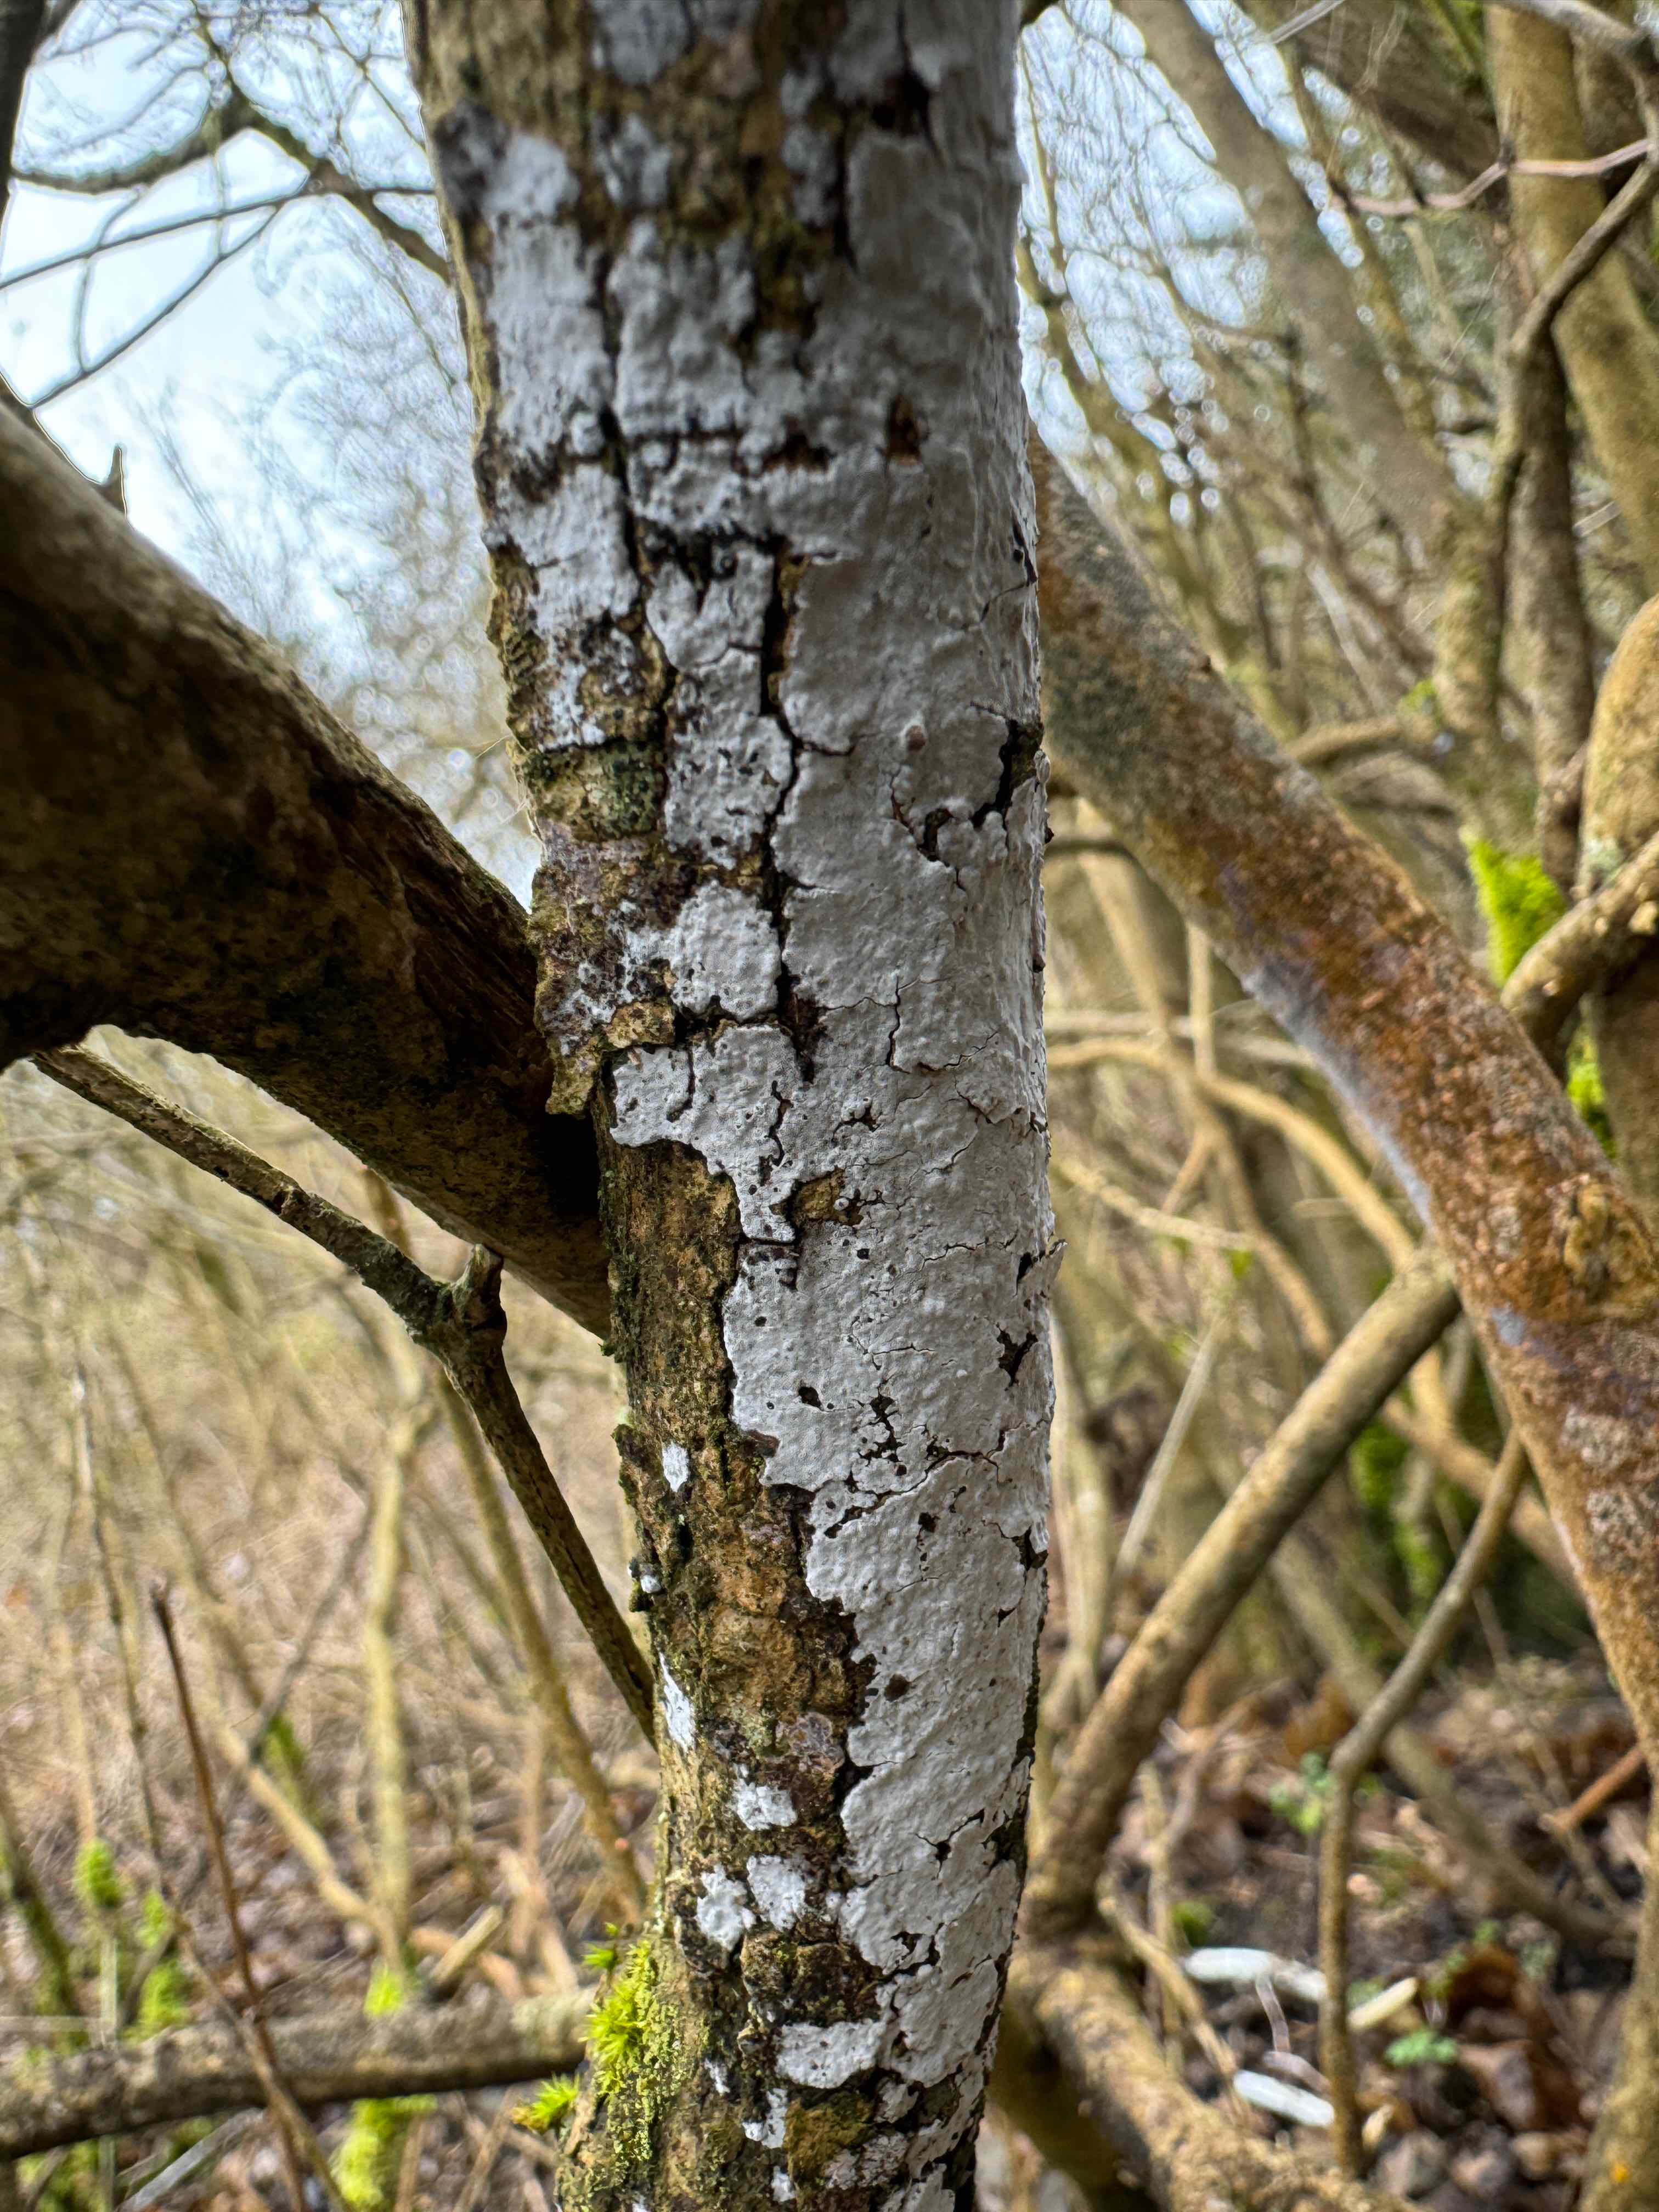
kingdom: Fungi
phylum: Basidiomycota
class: Agaricomycetes
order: Corticiales
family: Corticiaceae
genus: Lyomyces
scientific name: Lyomyces
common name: hyldehinde
